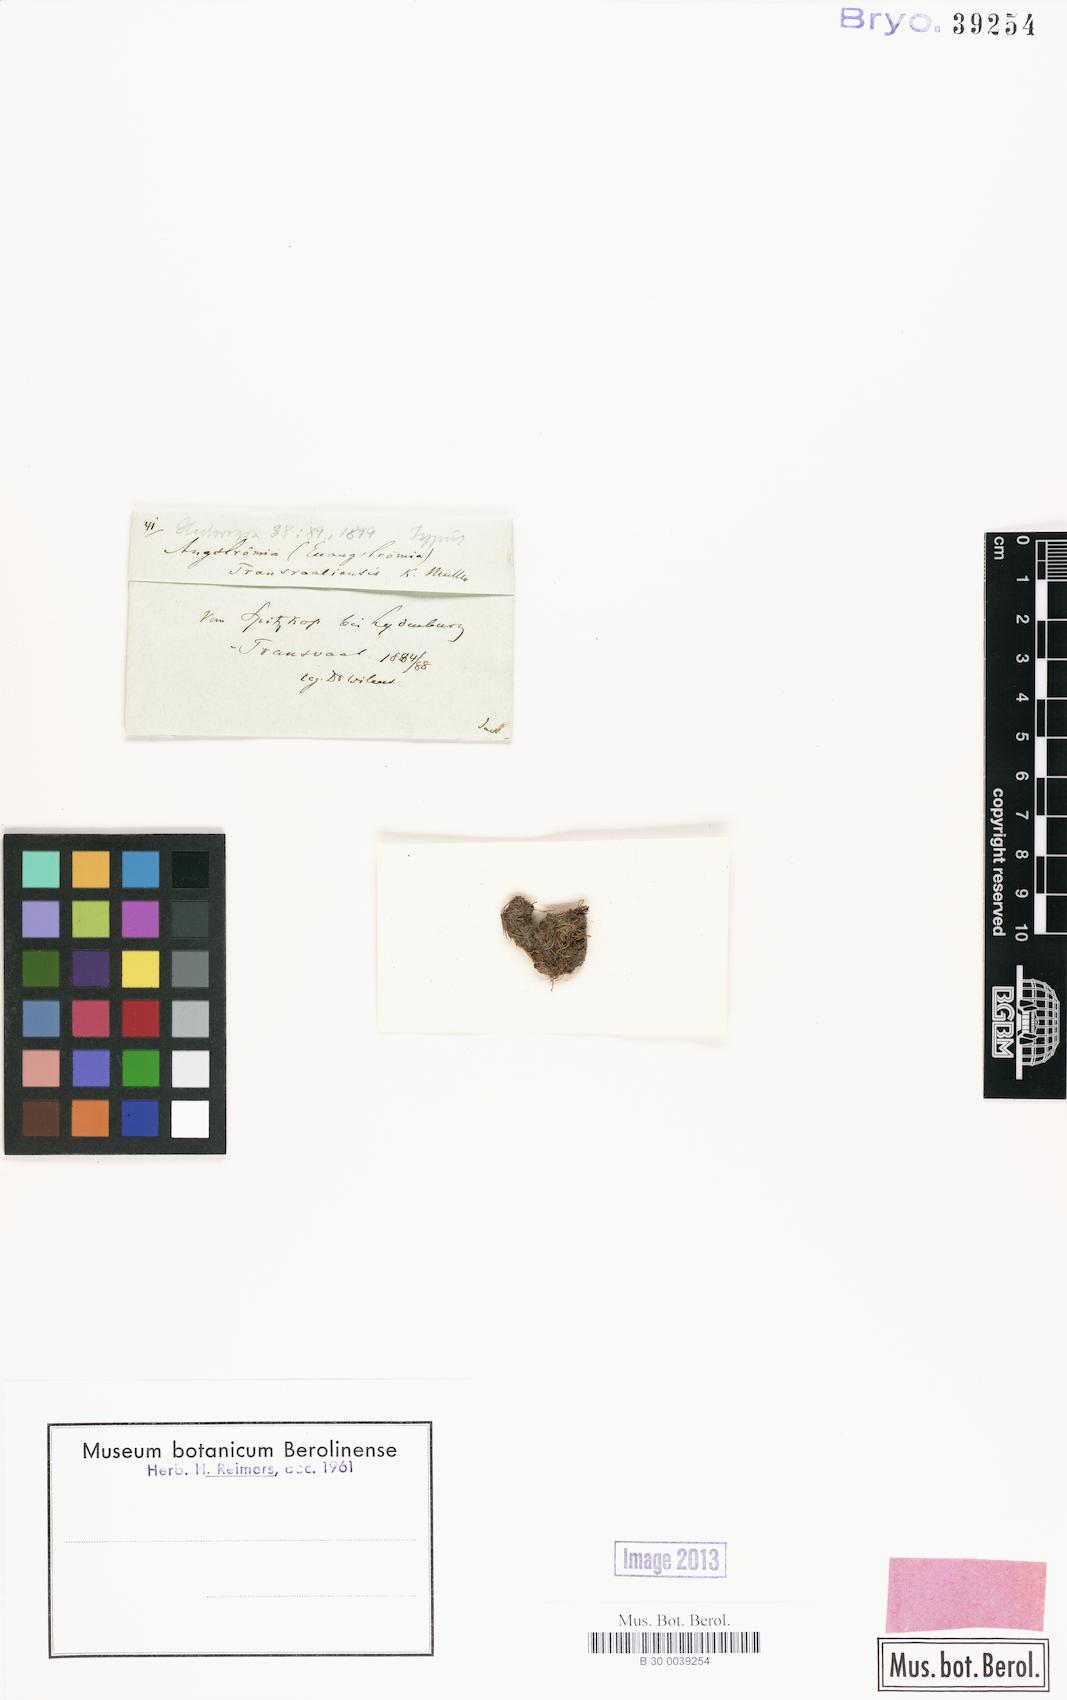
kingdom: Plantae
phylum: Bryophyta
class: Bryopsida
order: Dicranales
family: Aongstroemiaceae
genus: Aongstroemia
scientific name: Aongstroemia filiformis
